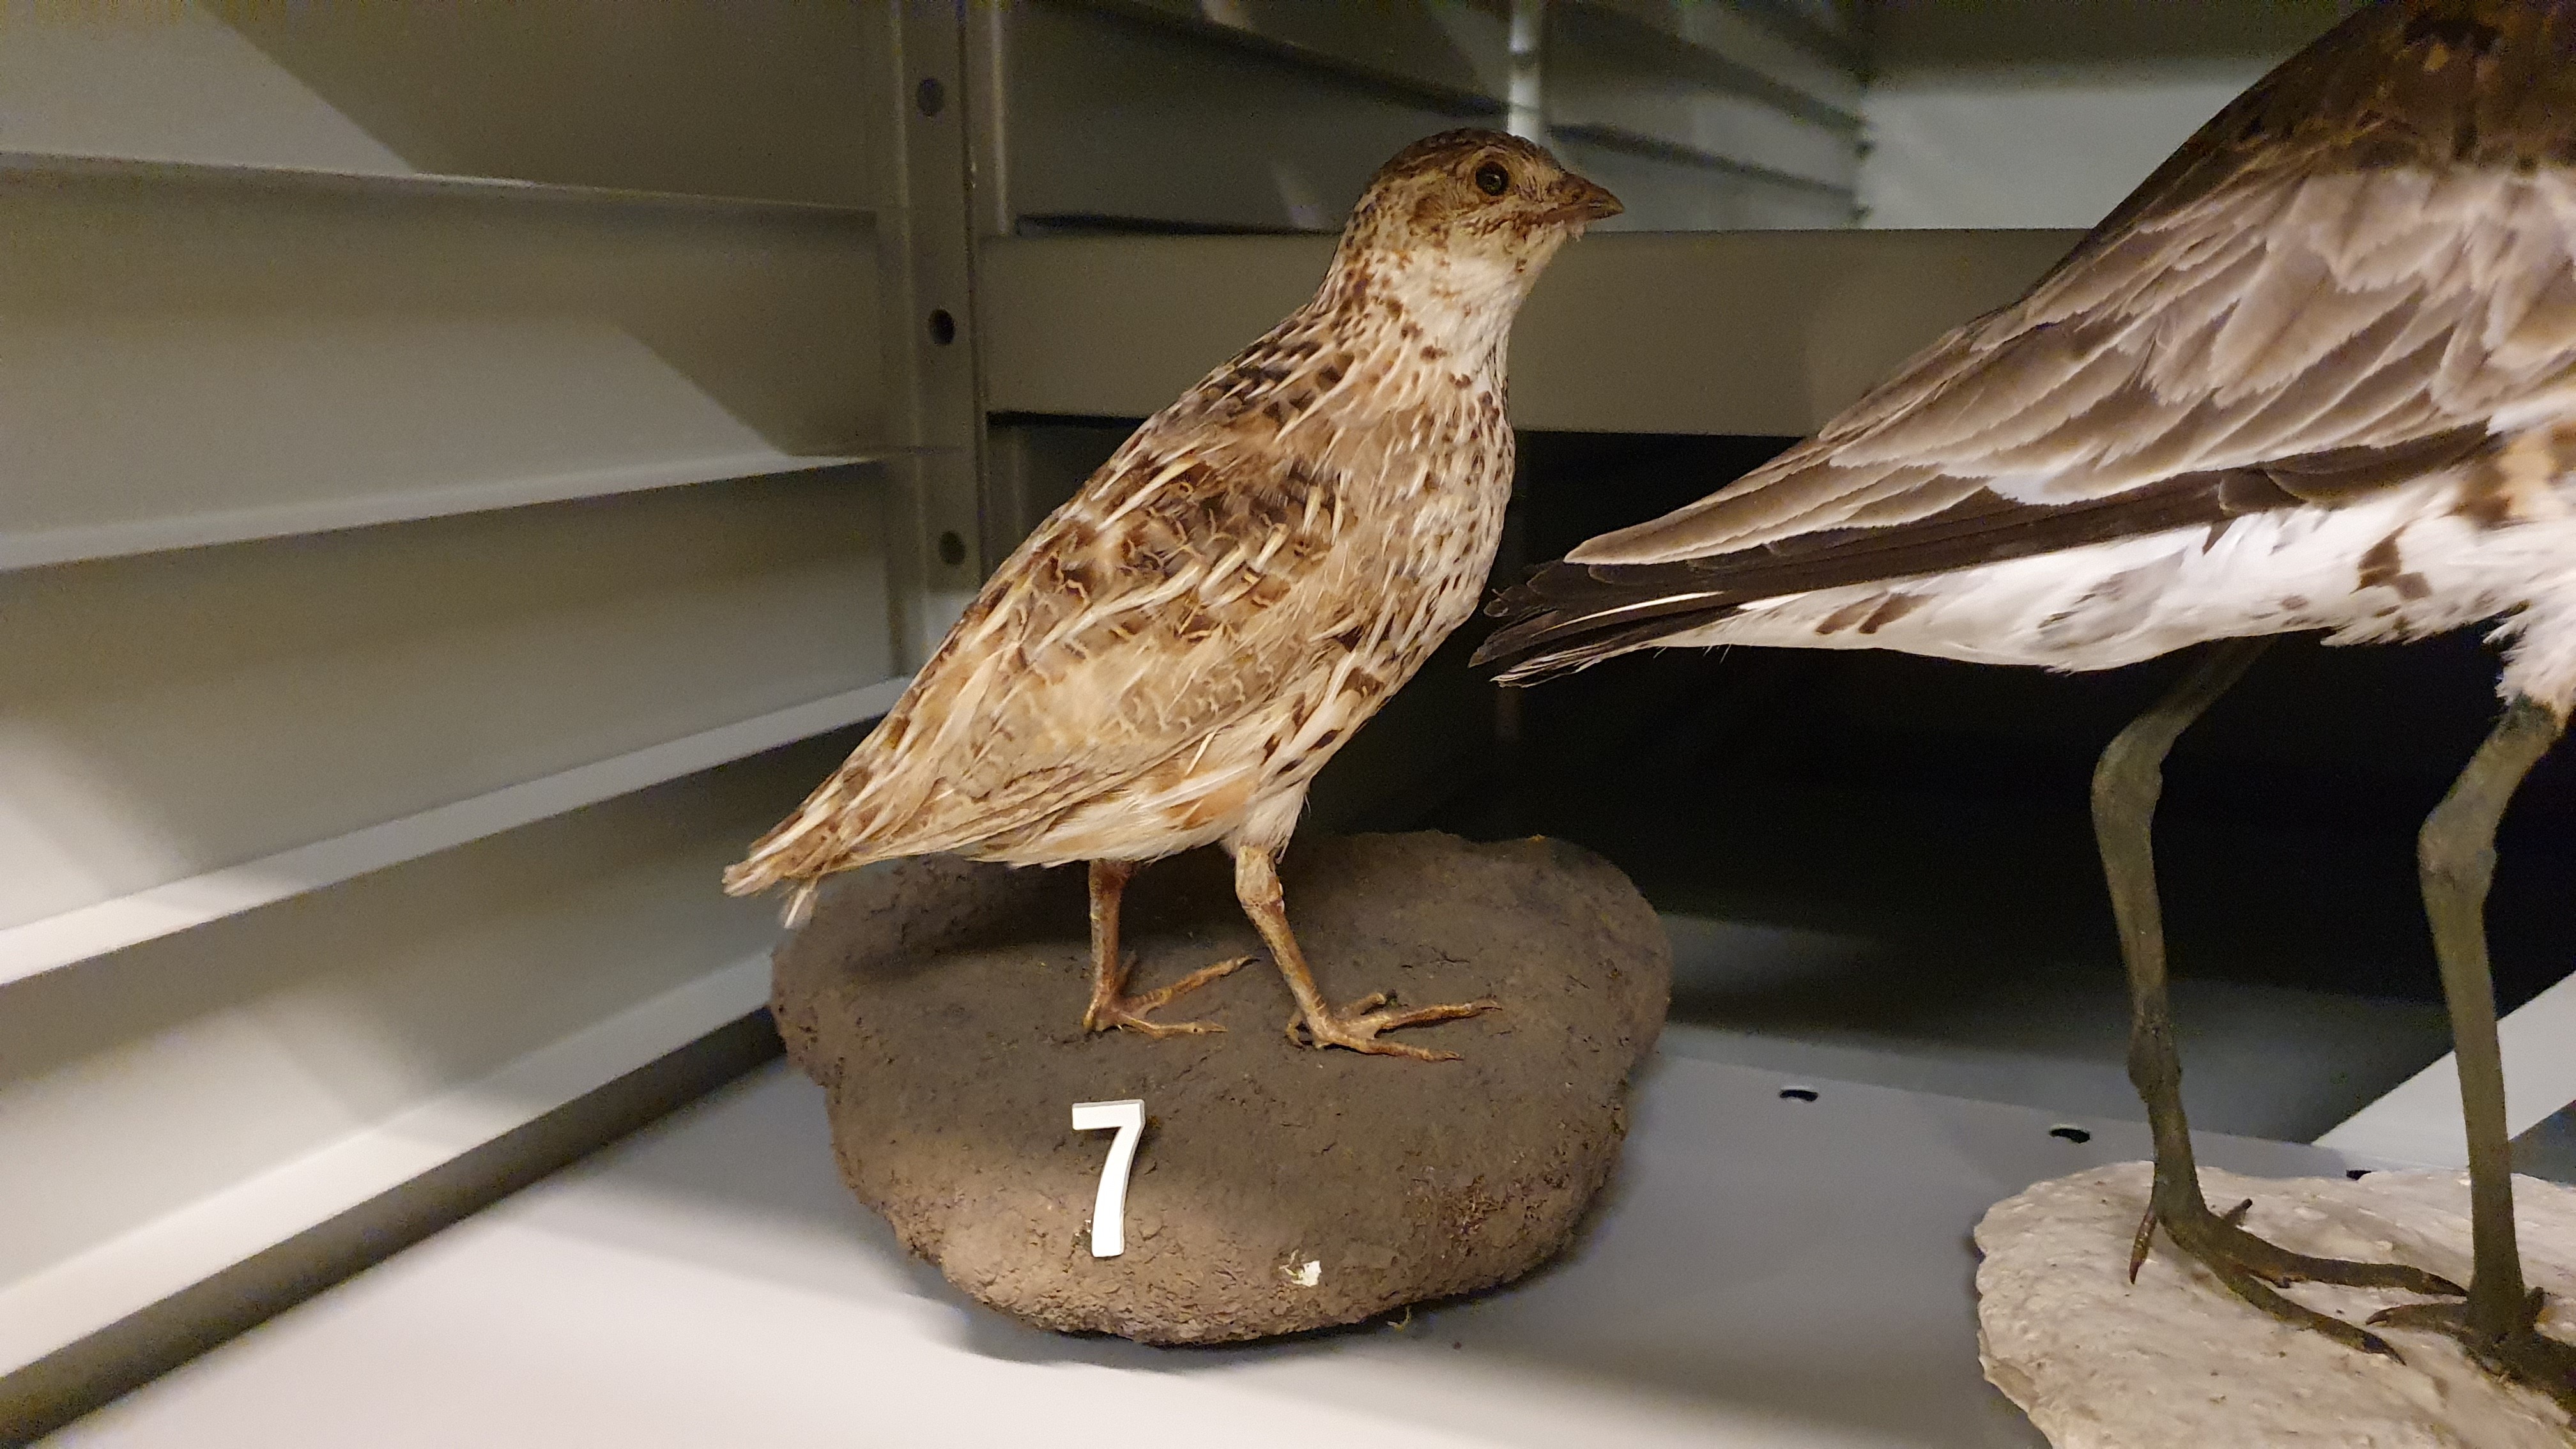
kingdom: Animalia
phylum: Chordata
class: Aves
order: Galliformes
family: Phasianidae
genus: Coturnix
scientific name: Coturnix coturnix
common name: Common quail
